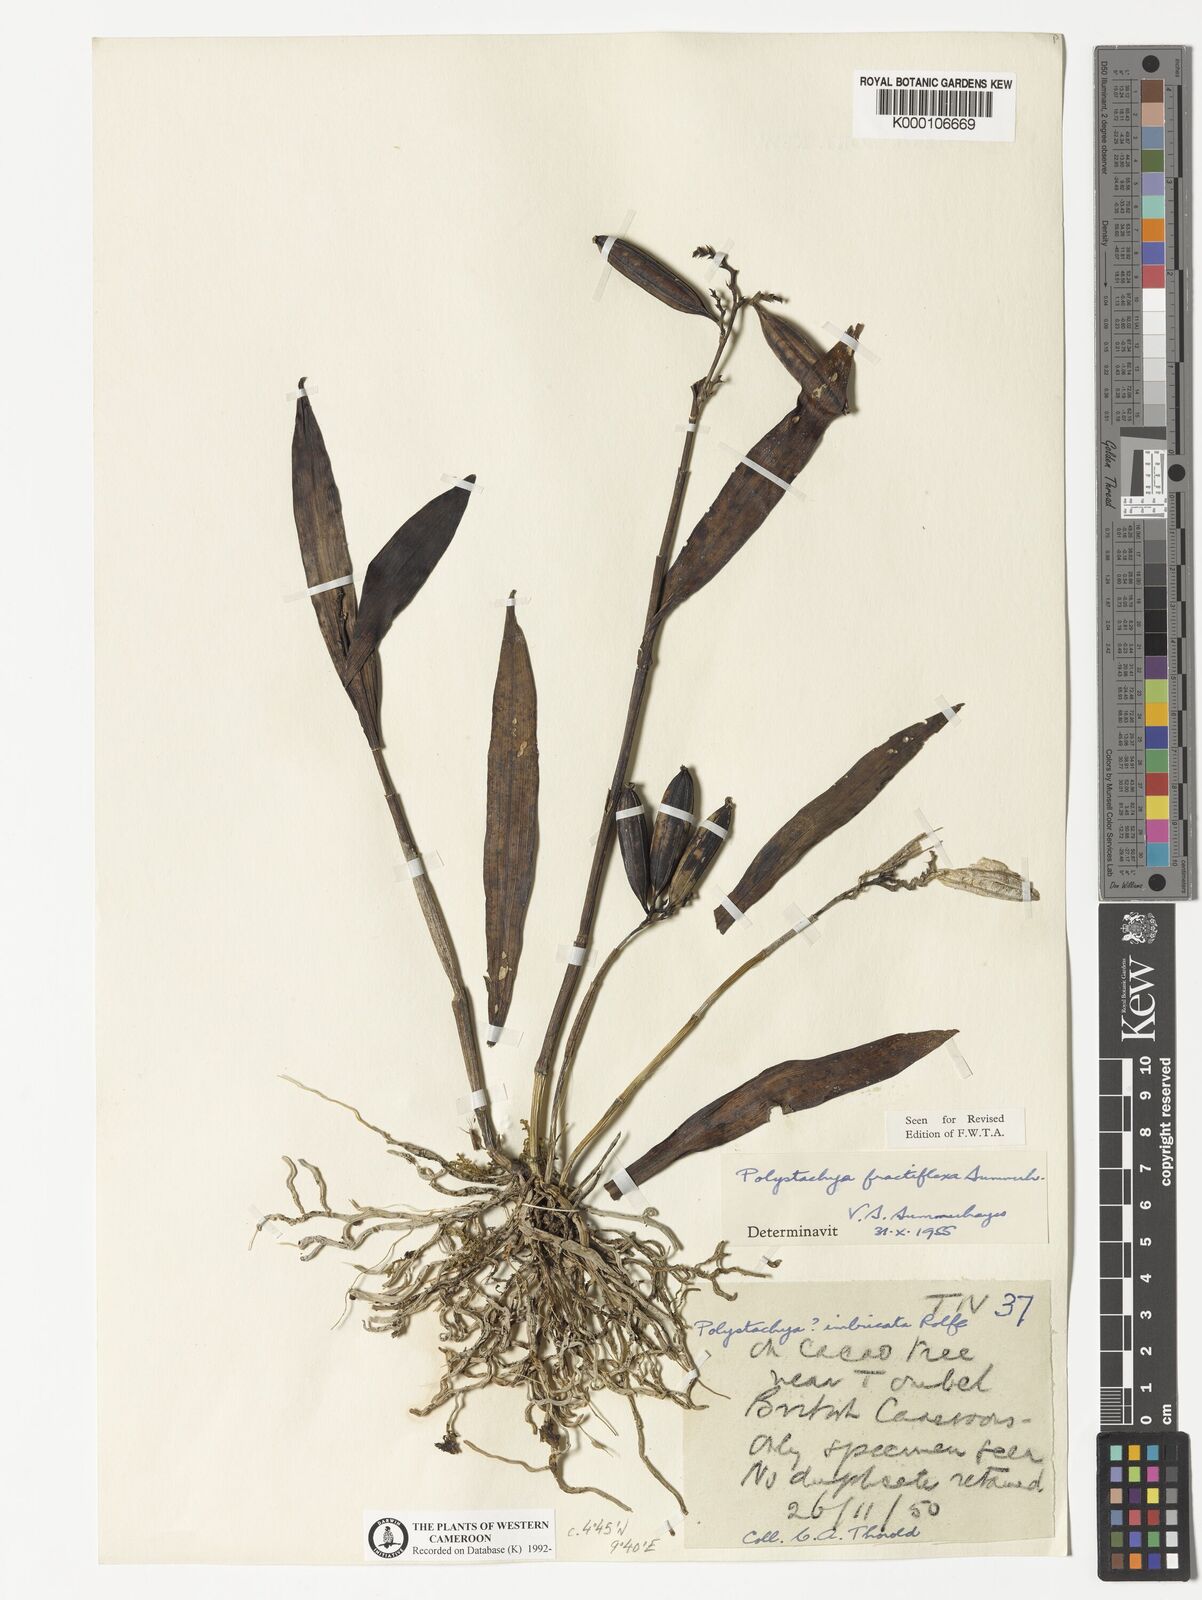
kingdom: Plantae
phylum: Tracheophyta
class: Liliopsida
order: Asparagales
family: Orchidaceae
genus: Polystachya
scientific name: Polystachya fractiflexa
